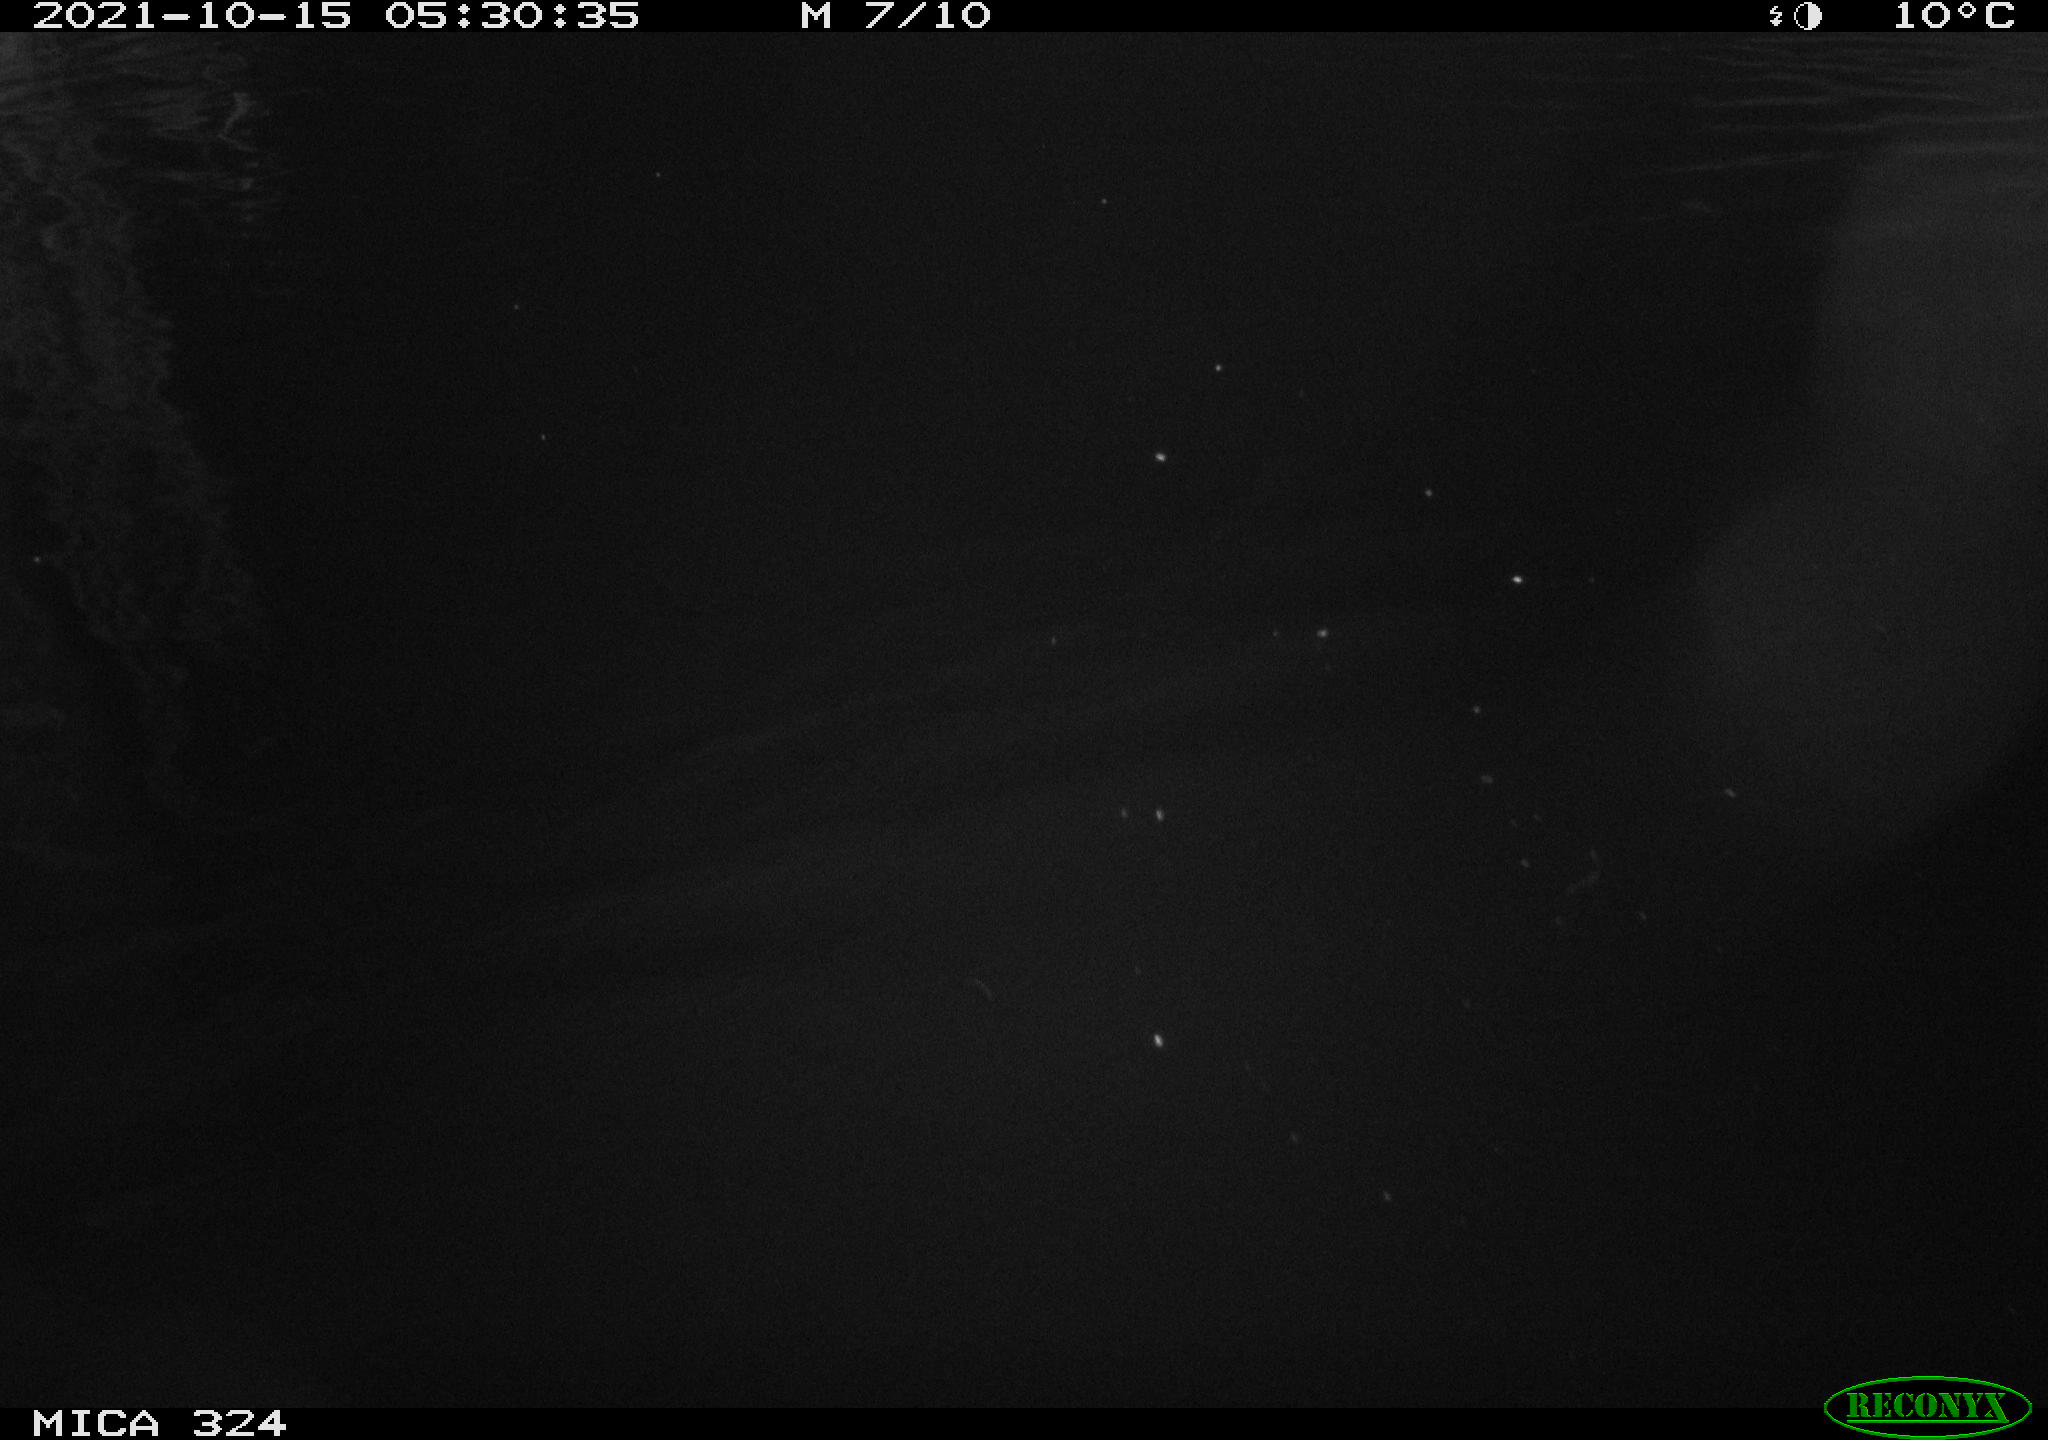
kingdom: Animalia
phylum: Chordata
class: Mammalia
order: Rodentia
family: Cricetidae
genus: Ondatra
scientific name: Ondatra zibethicus
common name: Muskrat
